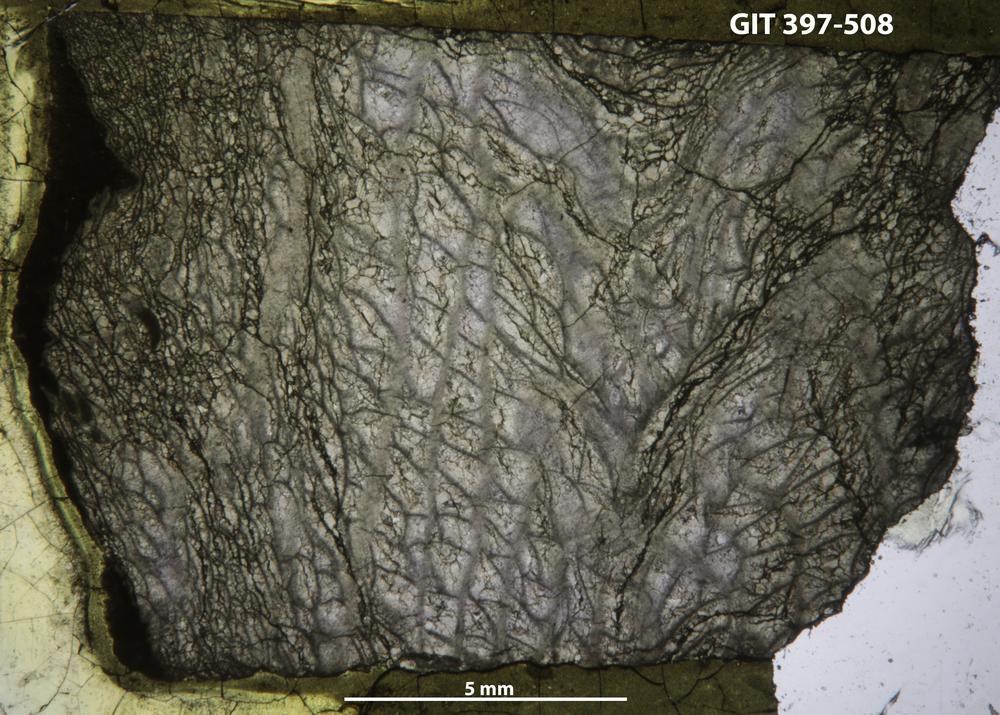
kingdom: Animalia
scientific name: Animalia
